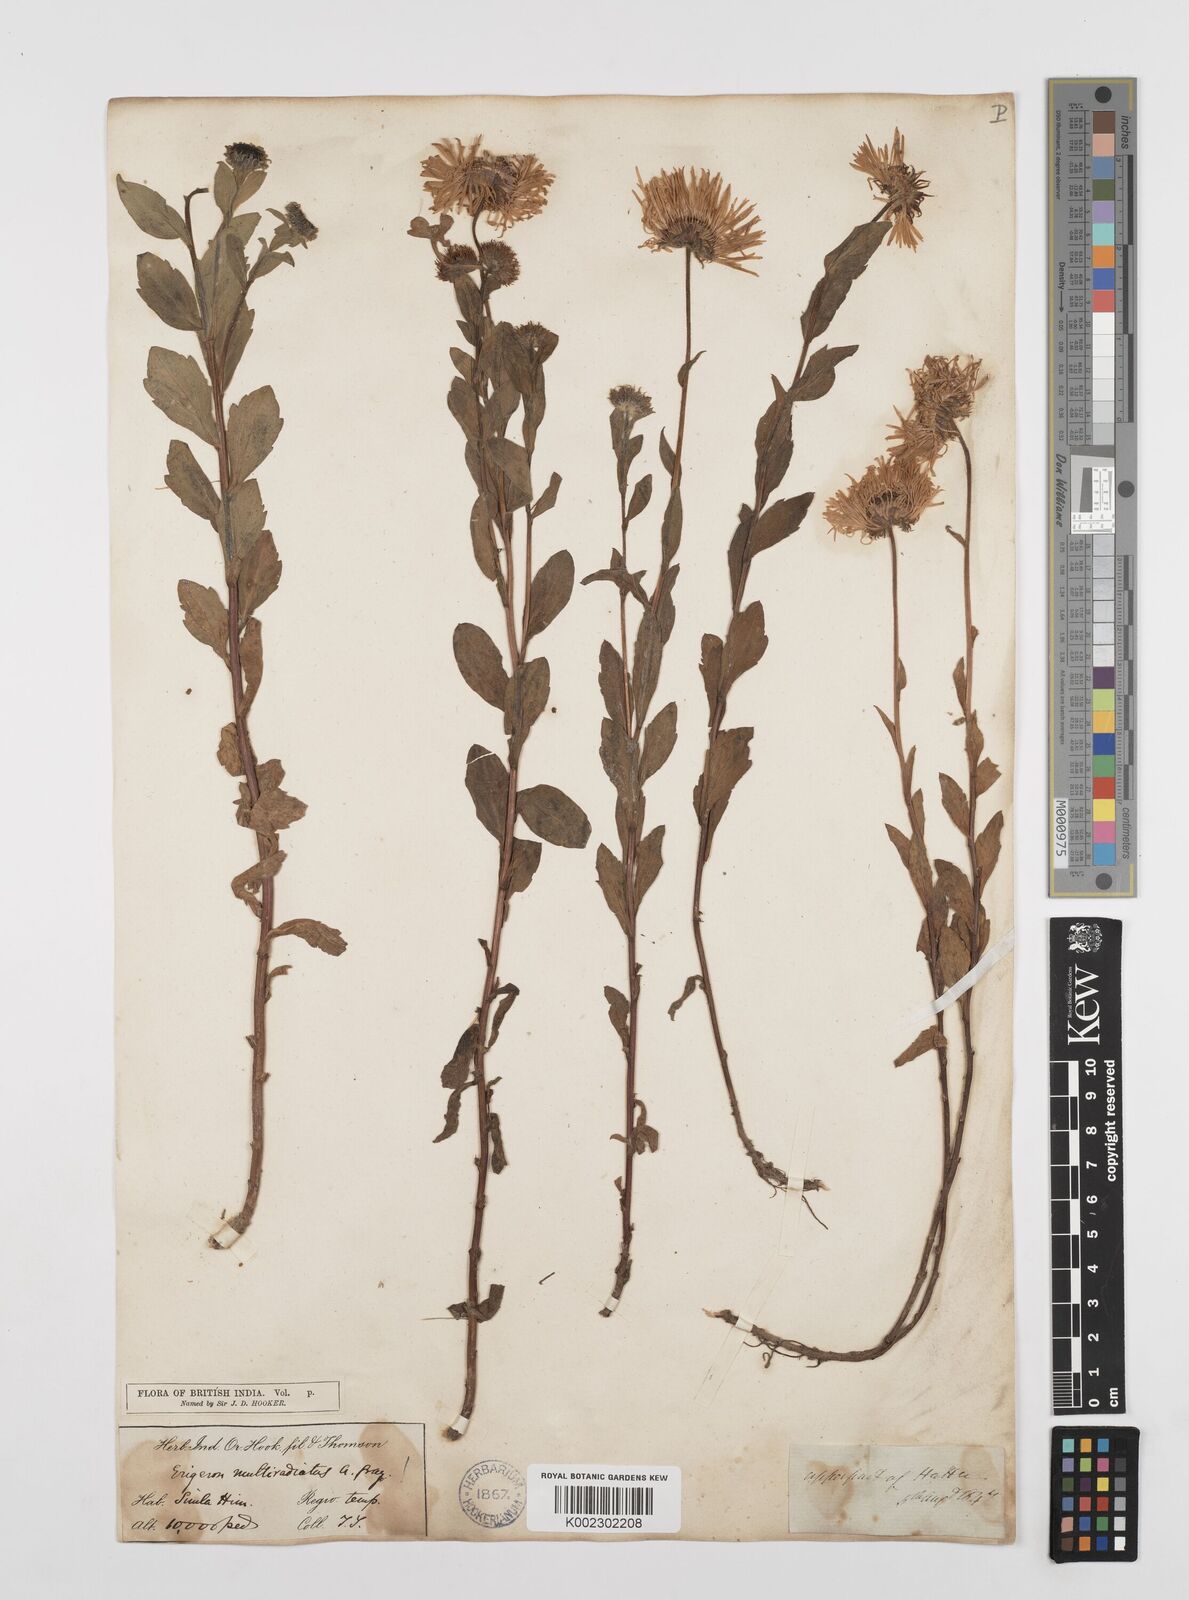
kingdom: Plantae
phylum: Tracheophyta
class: Magnoliopsida
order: Asterales
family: Asteraceae
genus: Erigeron
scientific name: Erigeron multiradiatus
